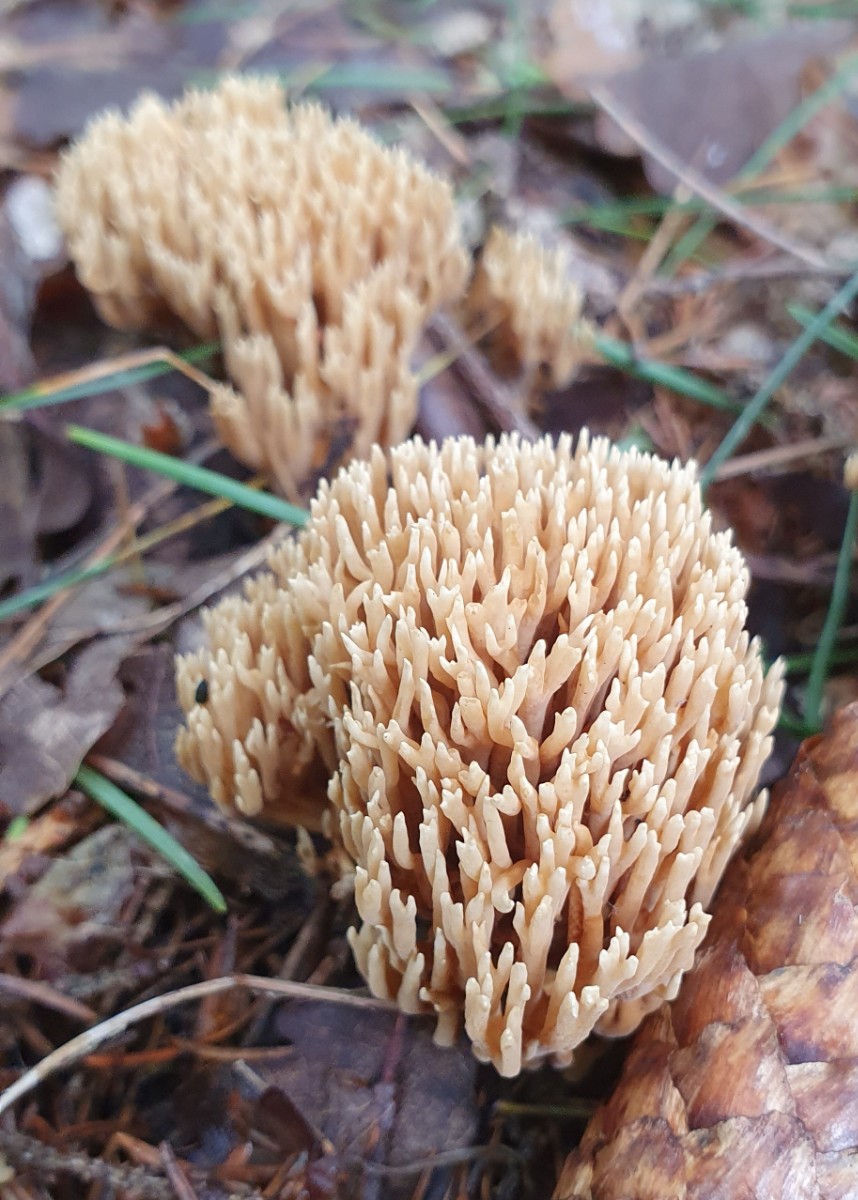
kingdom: Fungi
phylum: Basidiomycota
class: Agaricomycetes
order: Gomphales
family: Gomphaceae
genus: Phaeoclavulina
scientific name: Phaeoclavulina eumorpha
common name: gran-koralsvamp
